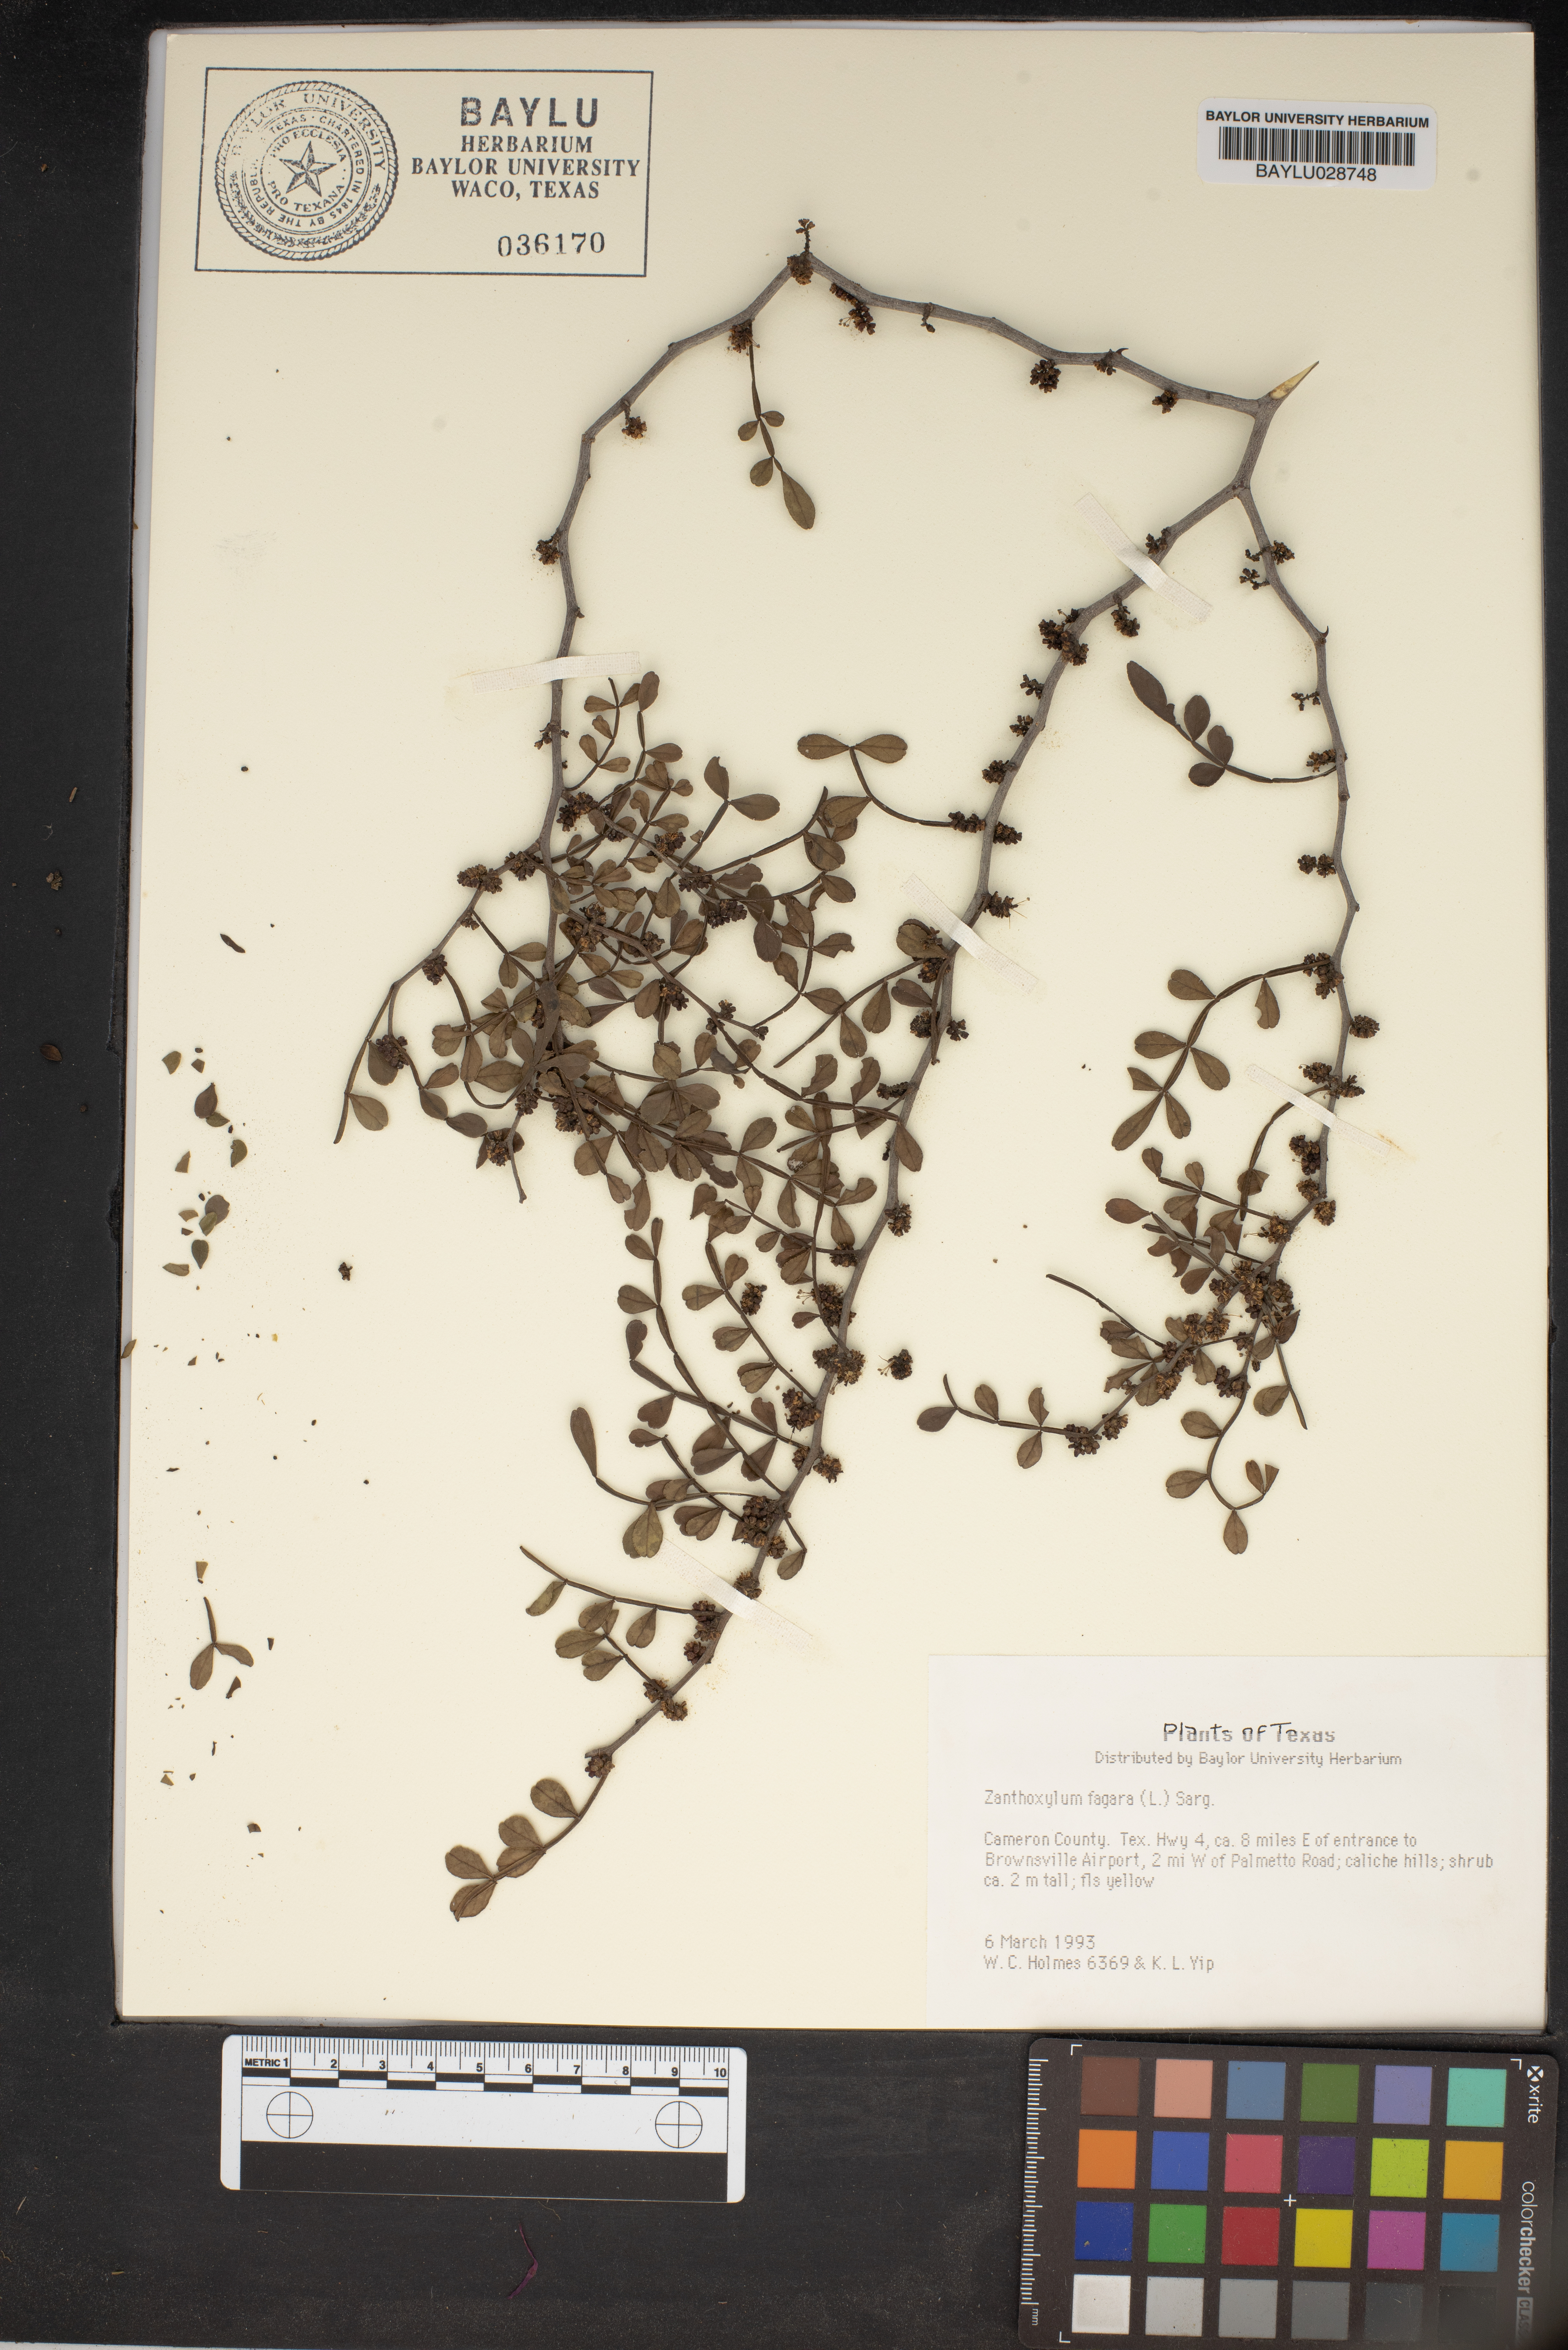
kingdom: Plantae
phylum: Tracheophyta
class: Magnoliopsida
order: Sapindales
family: Rutaceae
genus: Zanthoxylum
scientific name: Zanthoxylum fagara
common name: Lime prickly-ash
